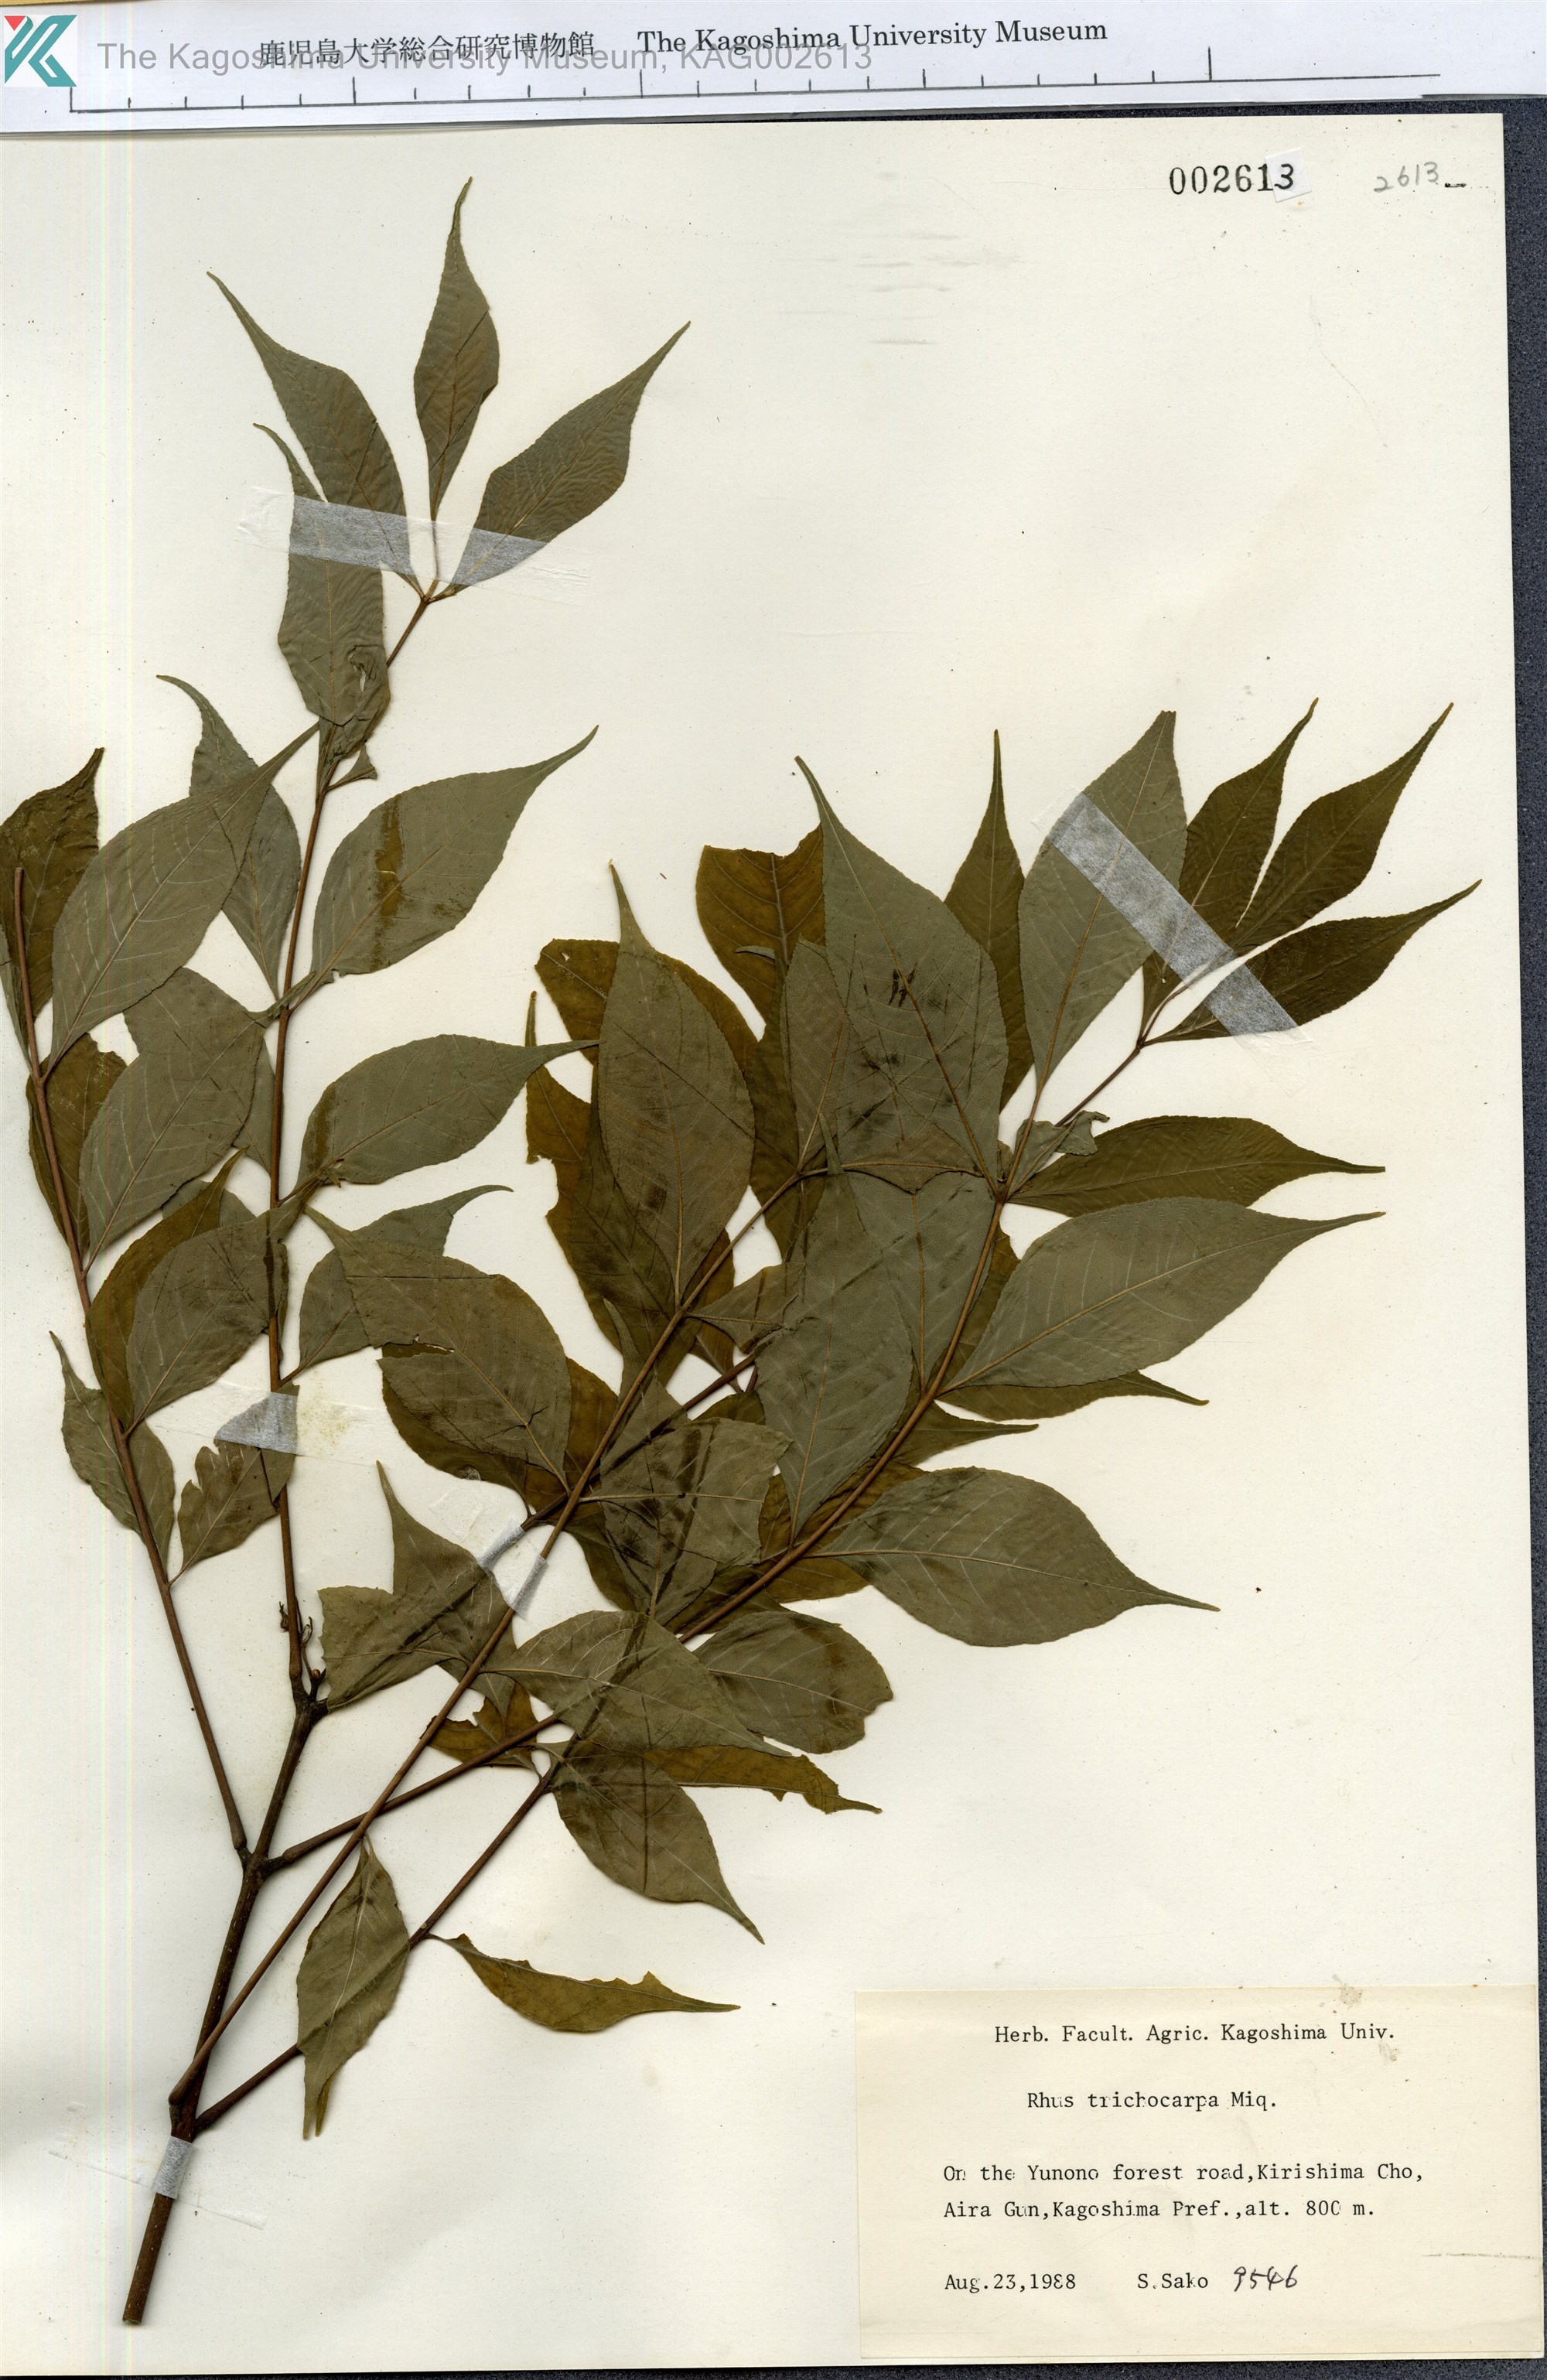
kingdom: Plantae
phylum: Tracheophyta
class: Magnoliopsida
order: Sapindales
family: Anacardiaceae
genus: Toxicodendron
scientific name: Toxicodendron trichocarpum
